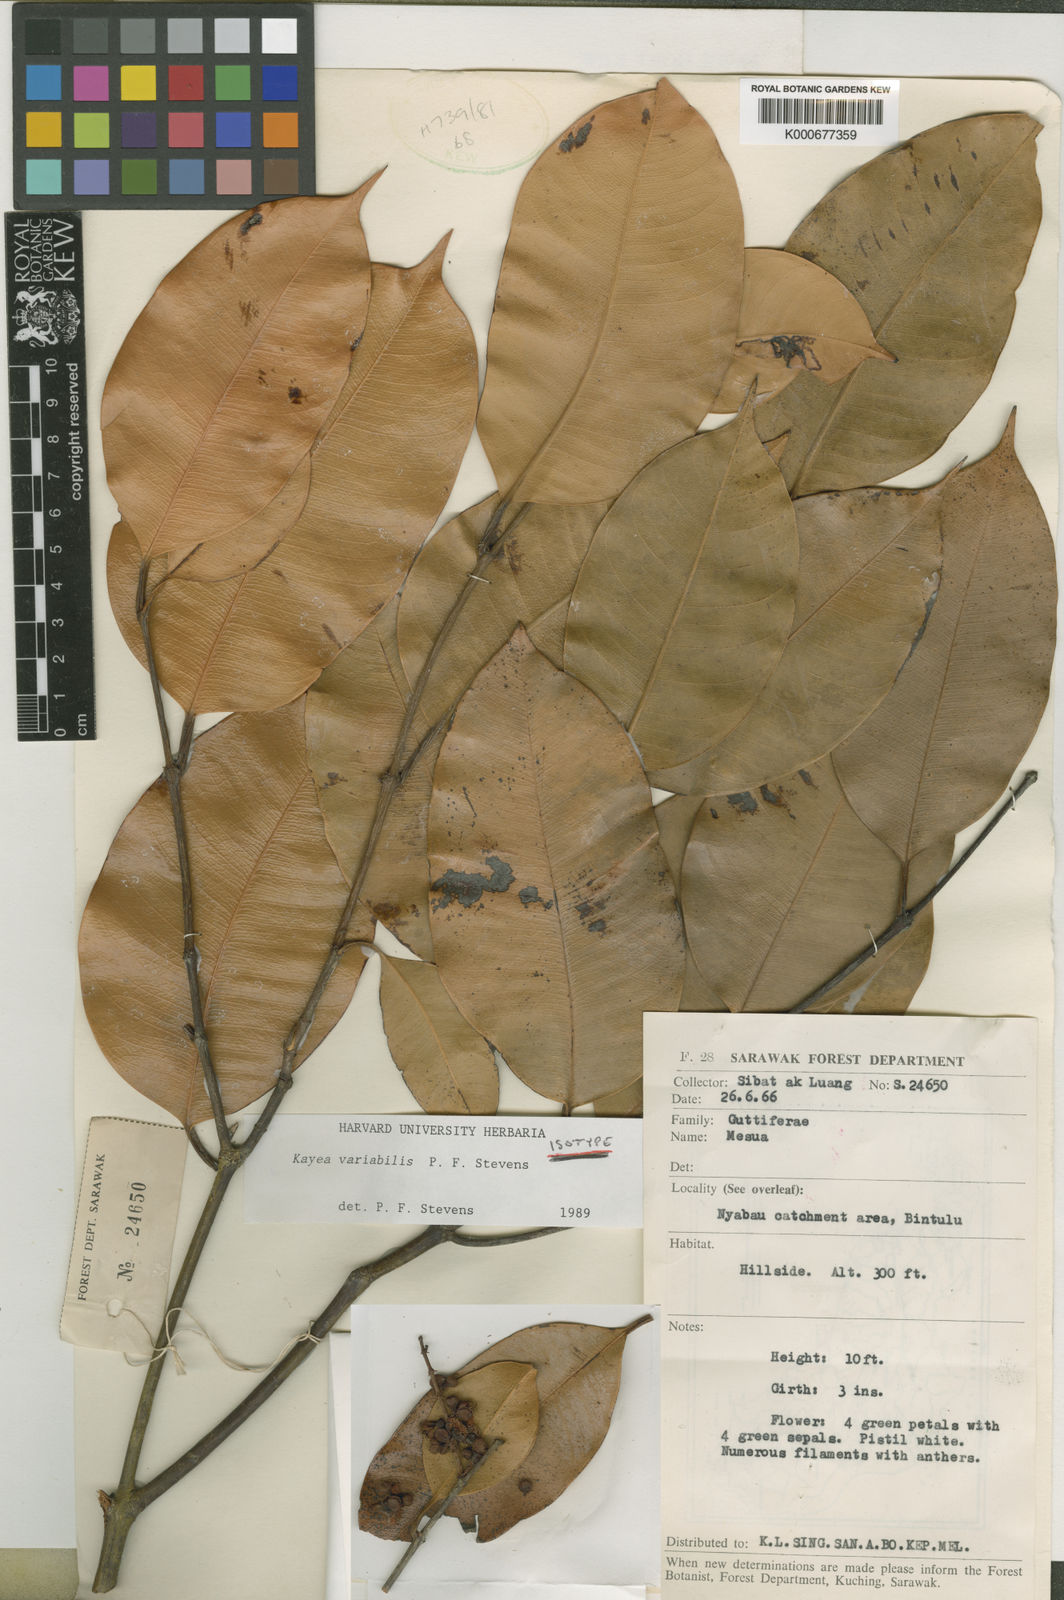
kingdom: Plantae
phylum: Tracheophyta
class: Magnoliopsida
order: Malpighiales
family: Calophyllaceae
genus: Kayea
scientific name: Kayea
